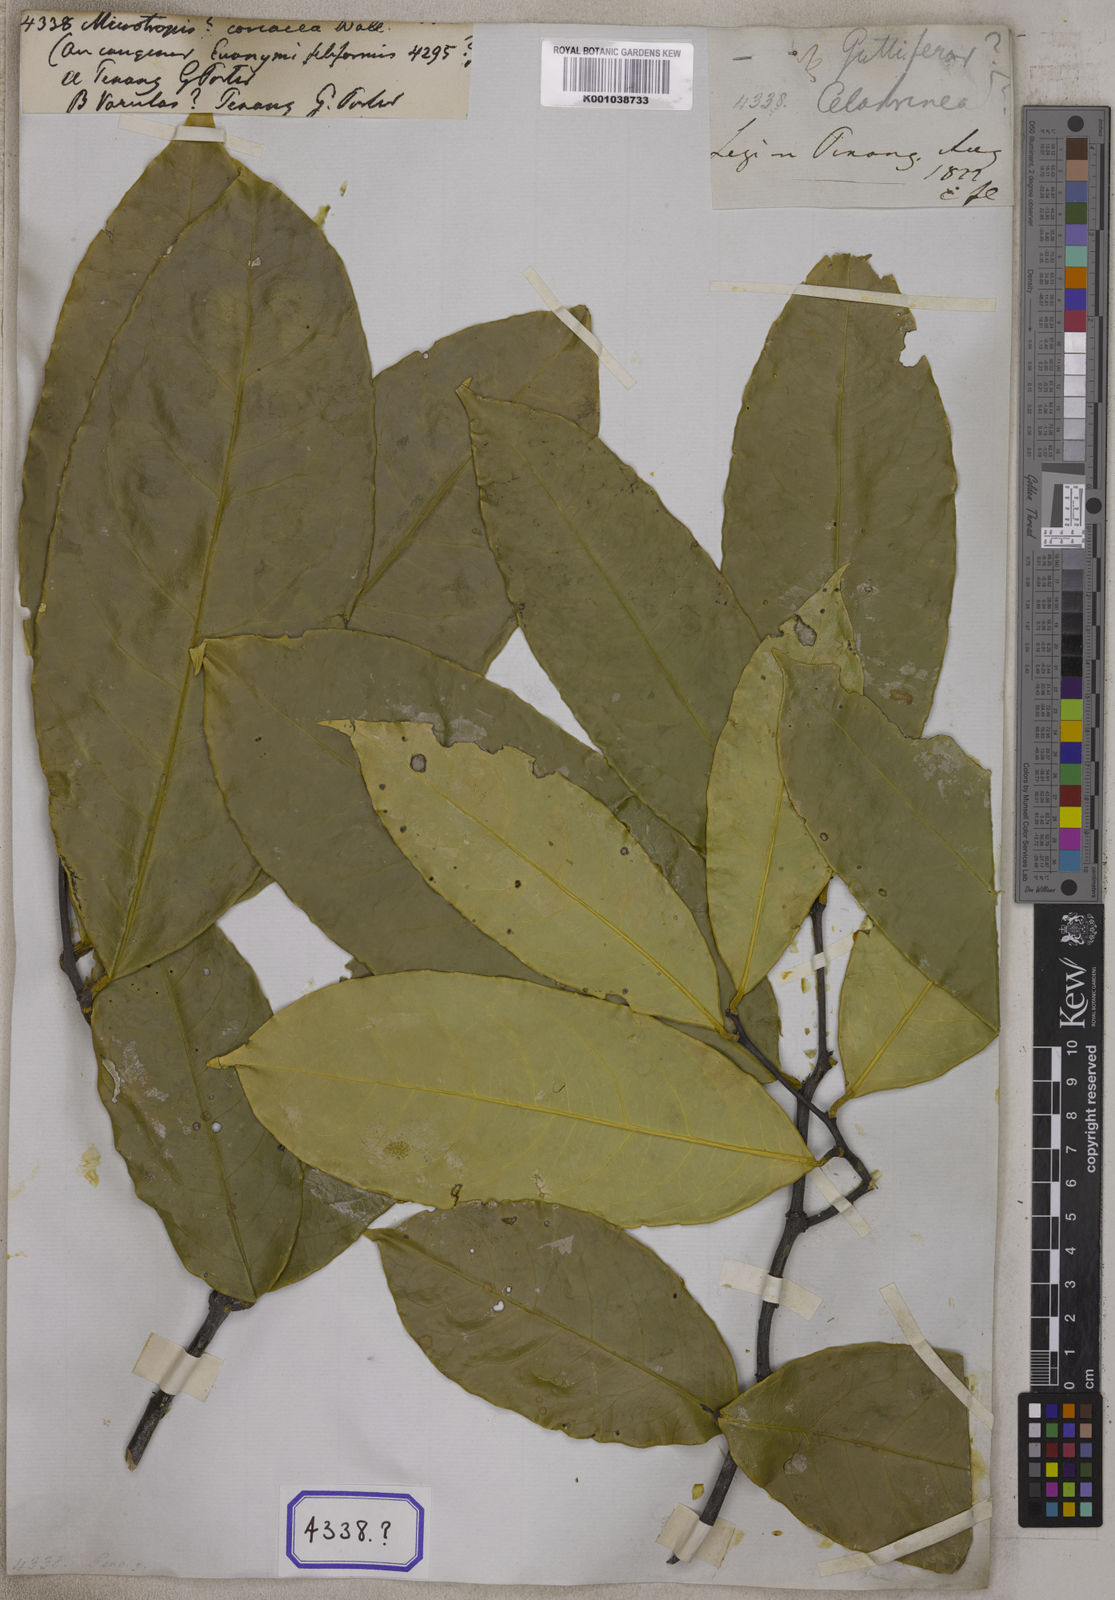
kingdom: Plantae
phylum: Tracheophyta
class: Magnoliopsida
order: Malpighiales
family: Rhizophoraceae
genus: Gynotroches
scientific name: Gynotroches axillaris
